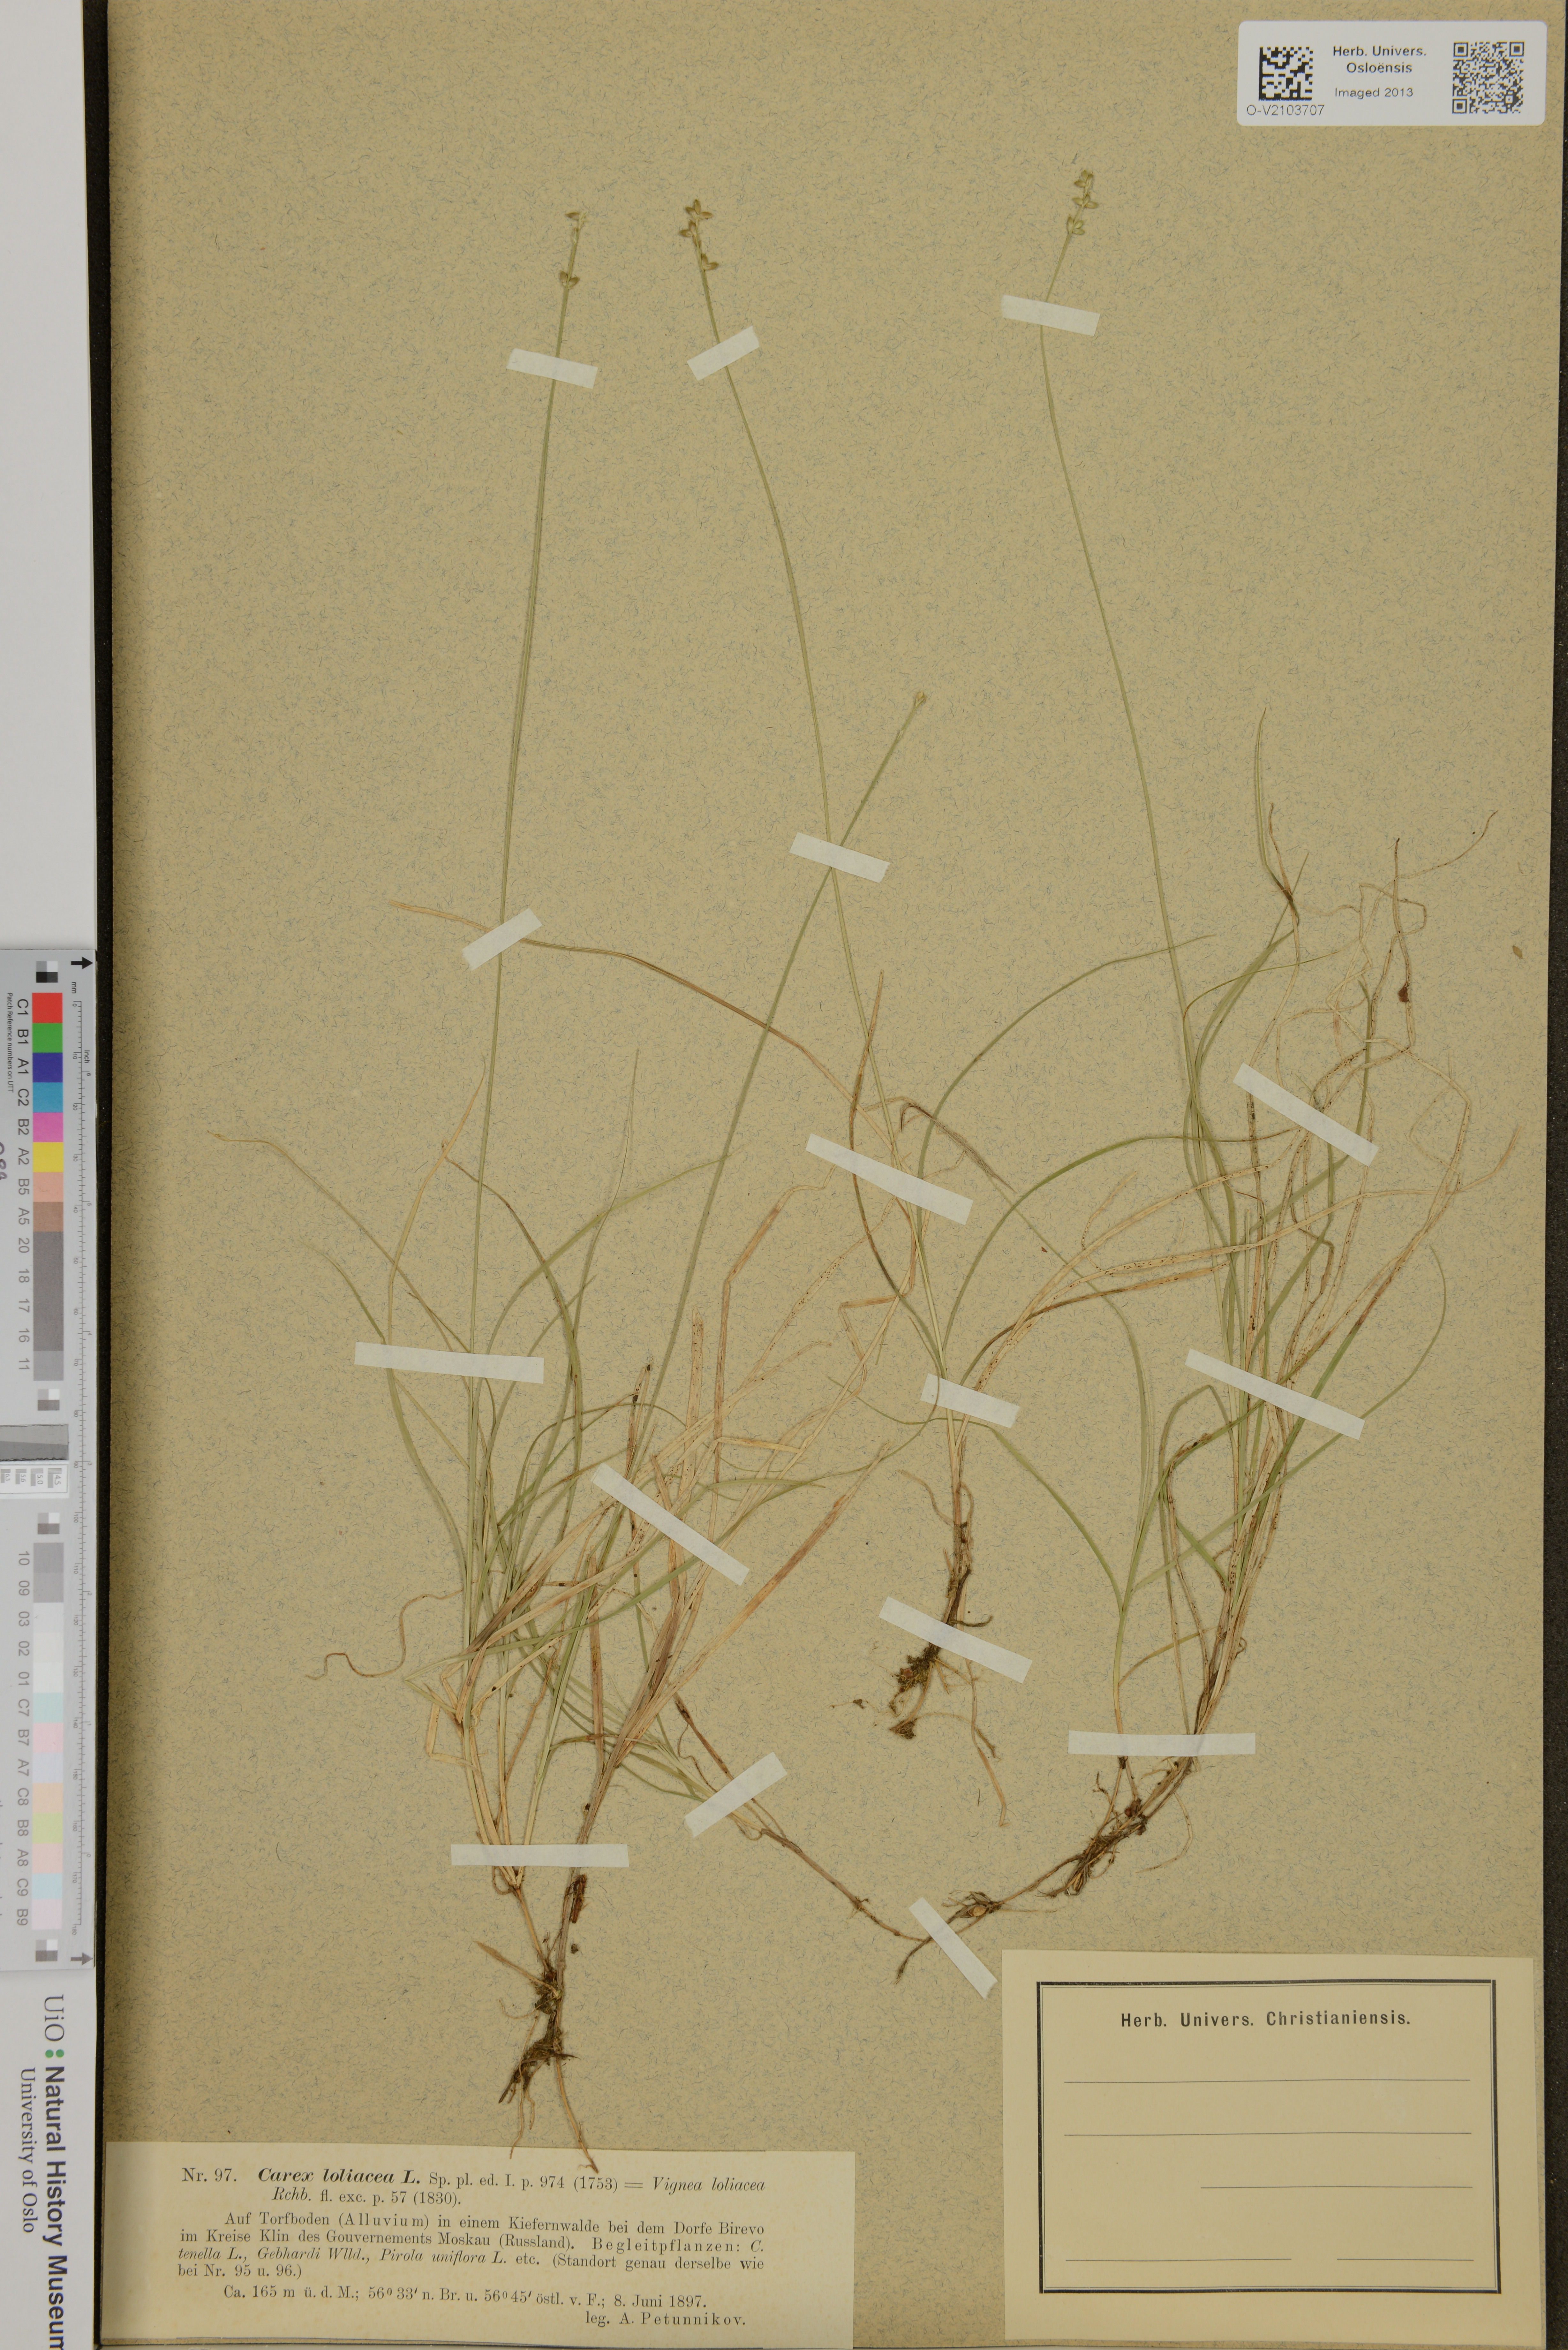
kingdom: Plantae
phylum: Tracheophyta
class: Liliopsida
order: Poales
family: Cyperaceae
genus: Carex
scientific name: Carex loliacea
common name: Ryegrass sedge
